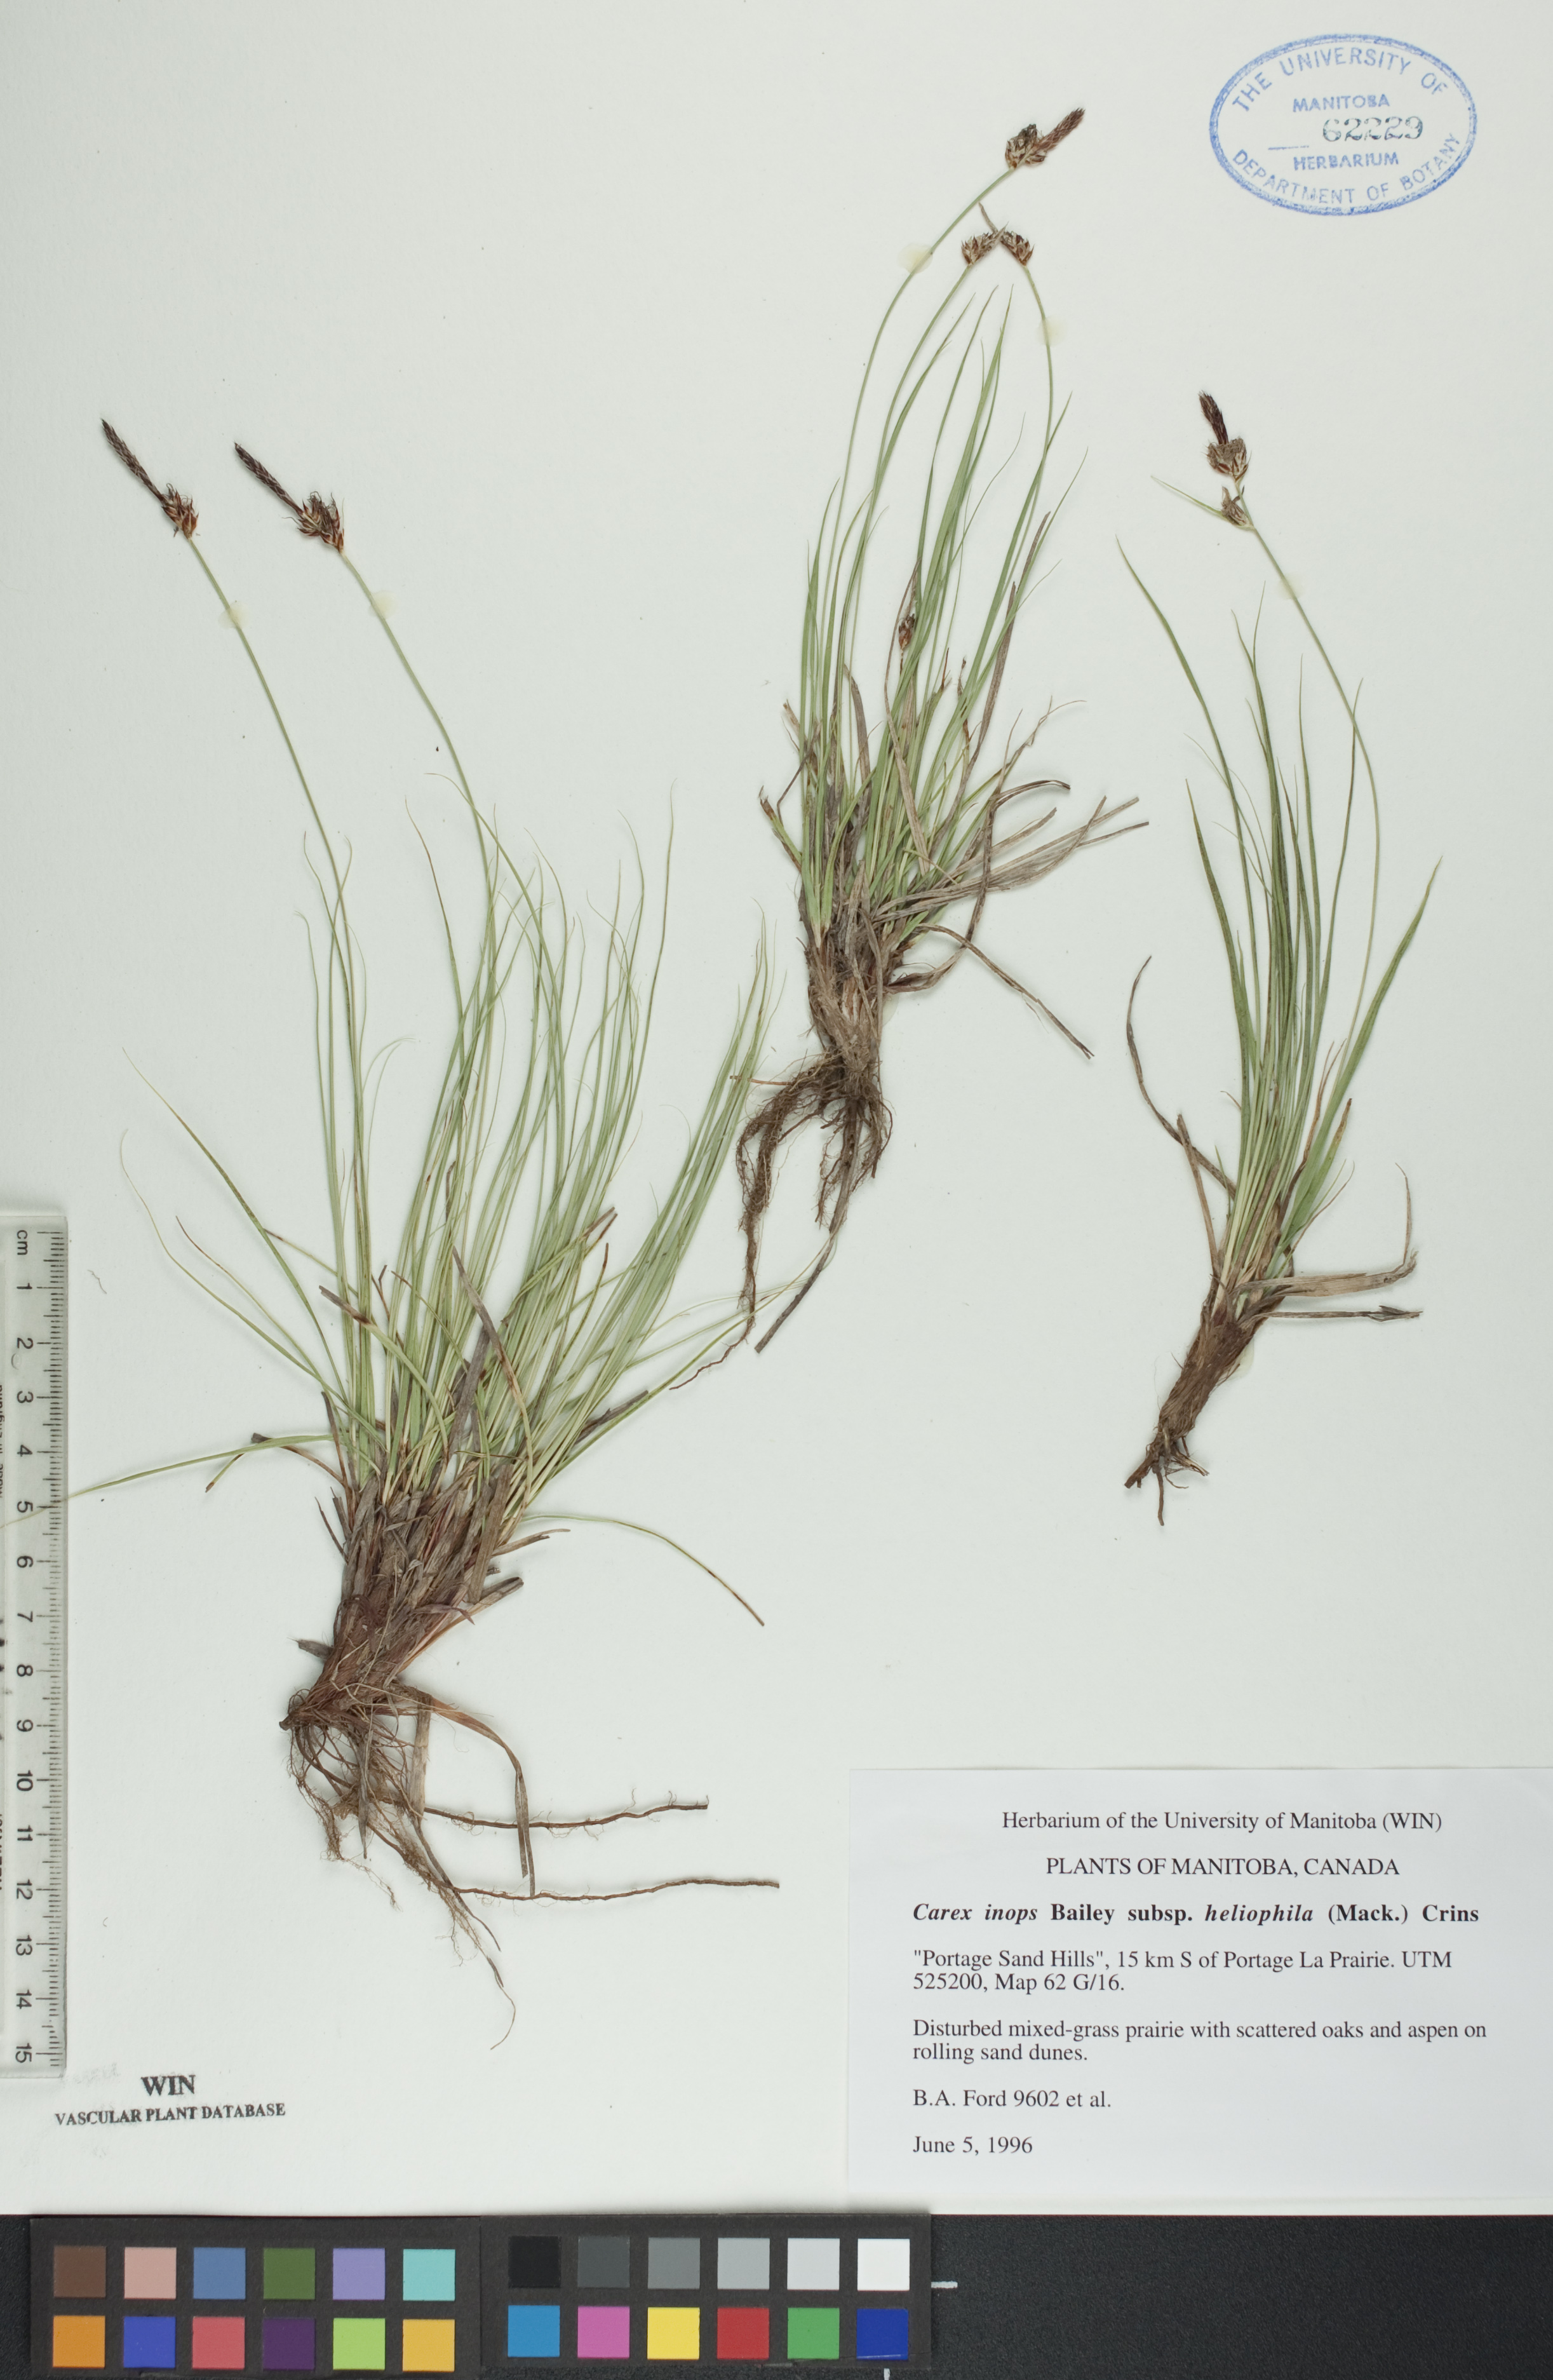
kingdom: Plantae
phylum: Tracheophyta
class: Liliopsida
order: Poales
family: Cyperaceae
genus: Carex
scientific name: Carex inops
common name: Long-stolon sedge
